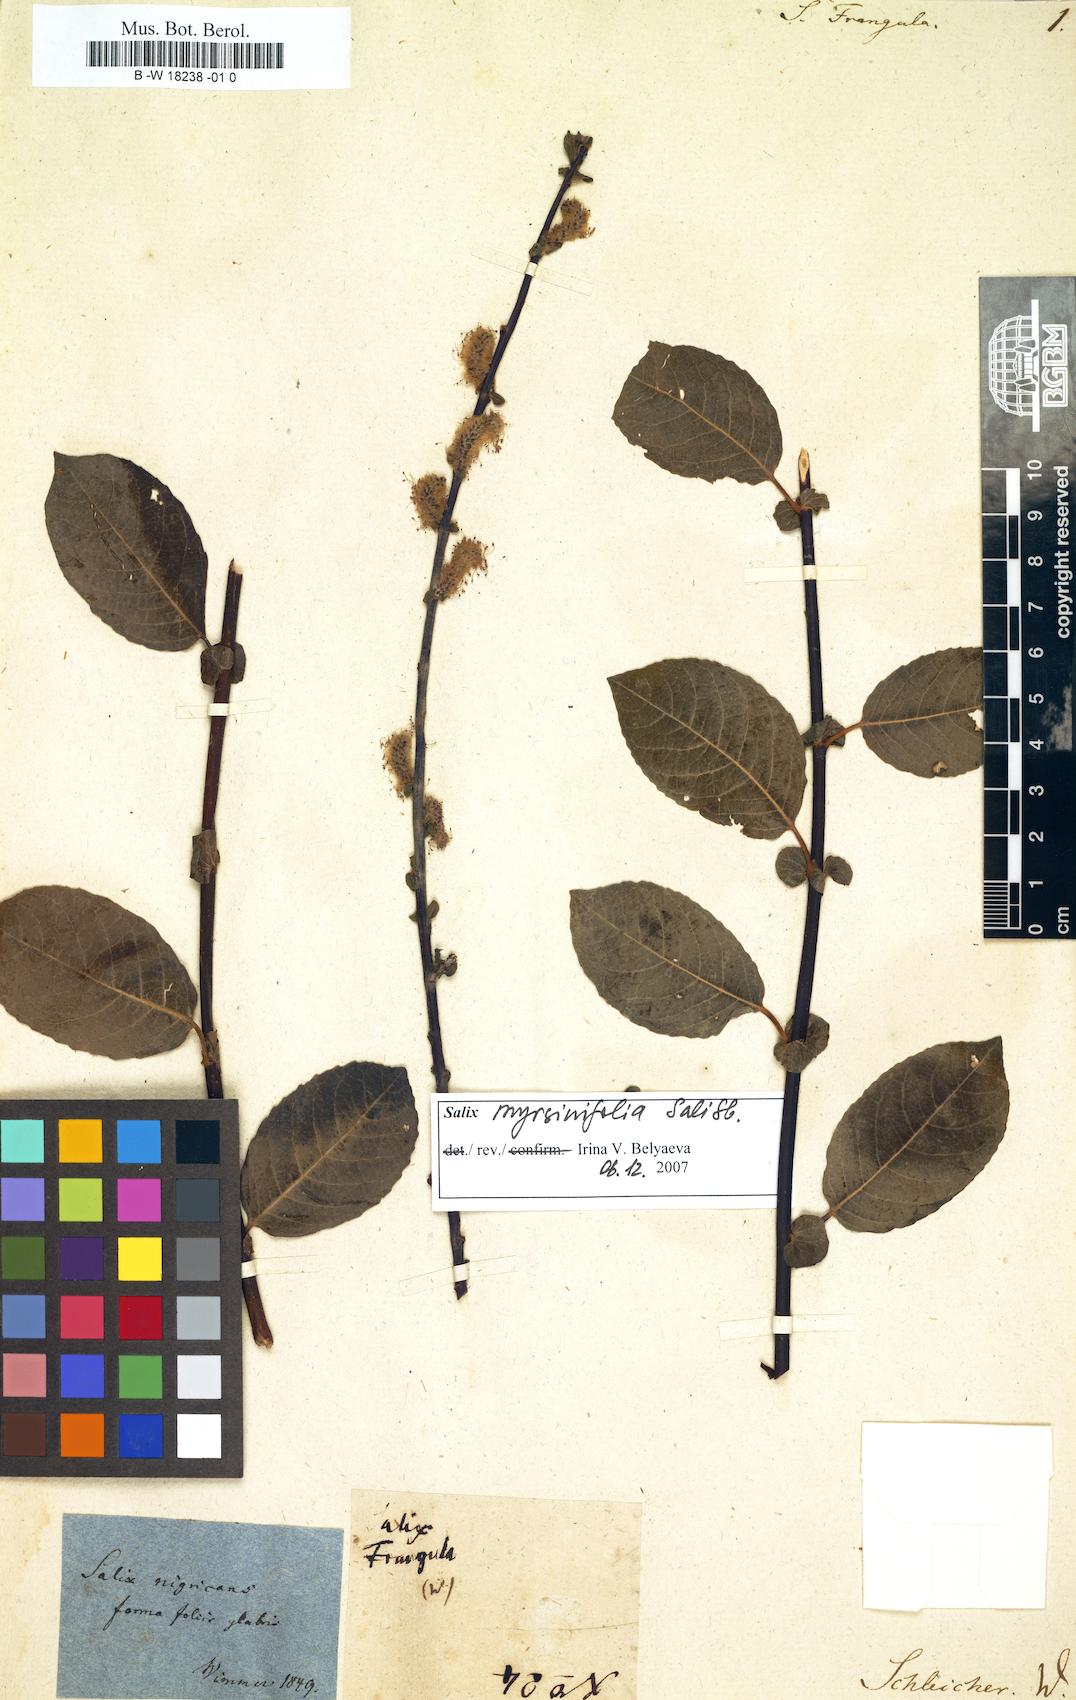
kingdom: Plantae
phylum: Tracheophyta
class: Magnoliopsida
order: Malpighiales
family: Salicaceae
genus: Salix
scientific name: Salix myrsinifolia
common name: Dark-leaved willow
